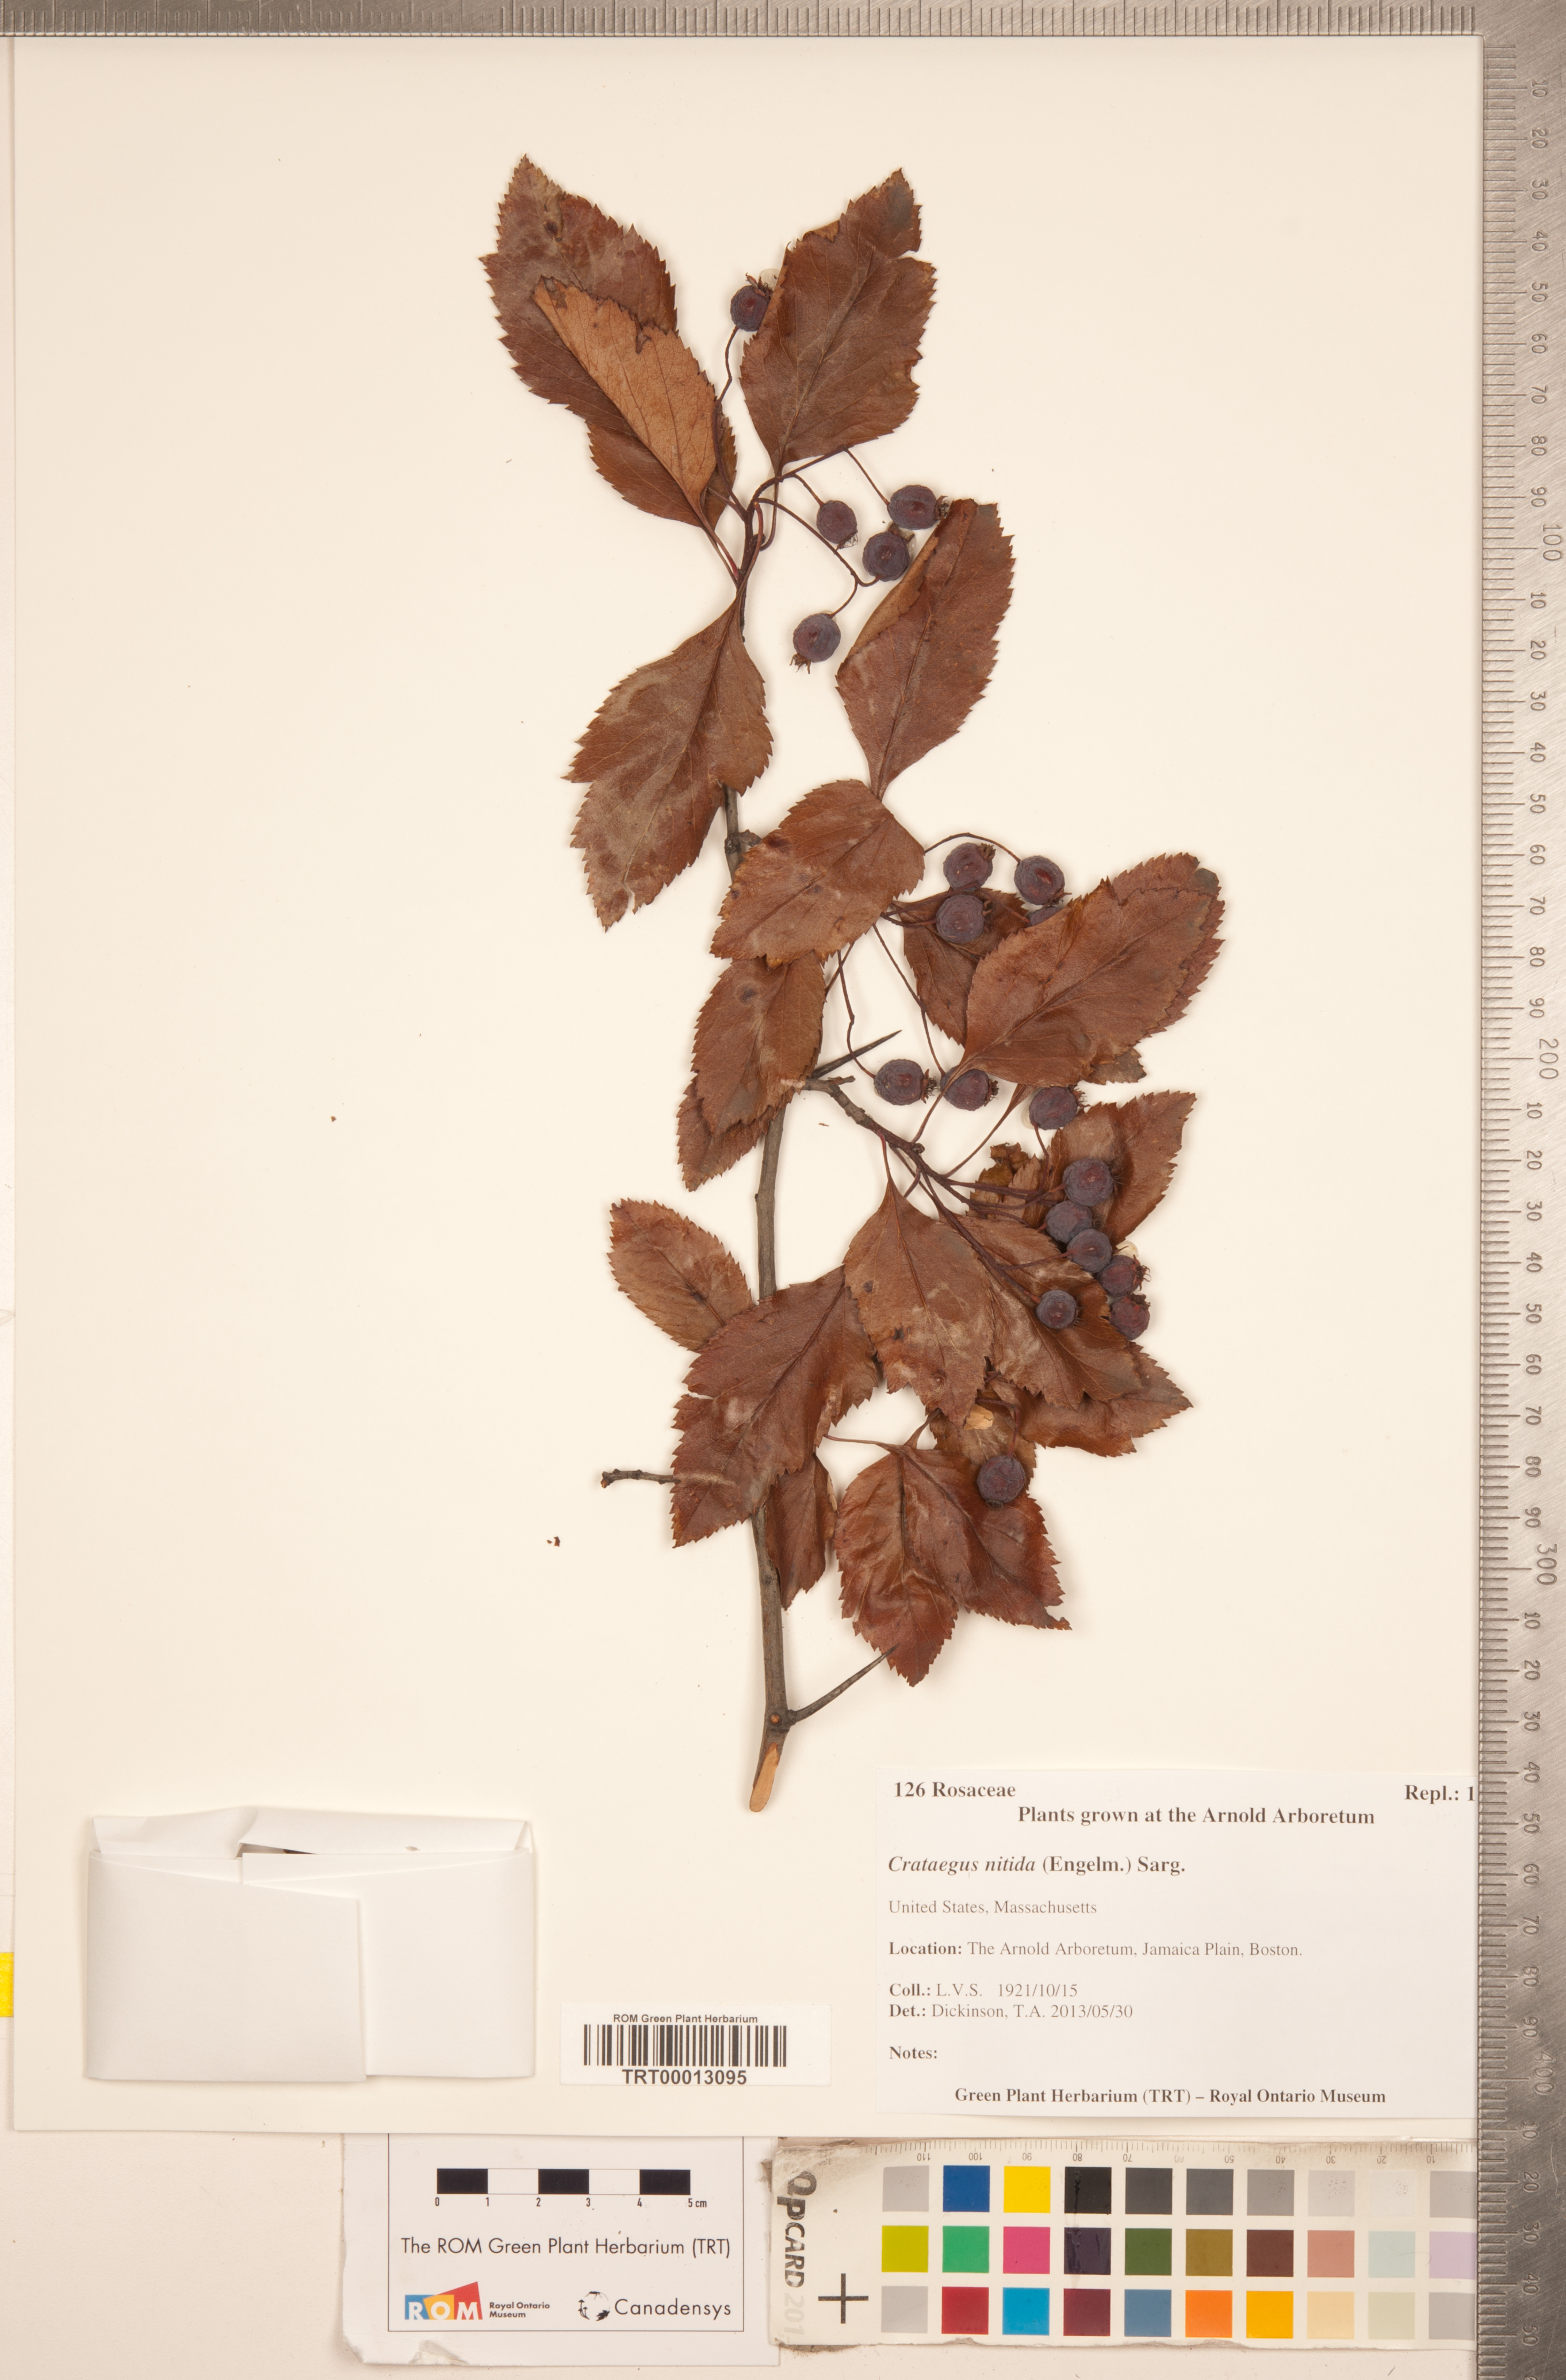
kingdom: Plantae
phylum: Tracheophyta
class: Magnoliopsida
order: Rosales
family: Rosaceae
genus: Crataegus
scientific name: Crataegus nitida
